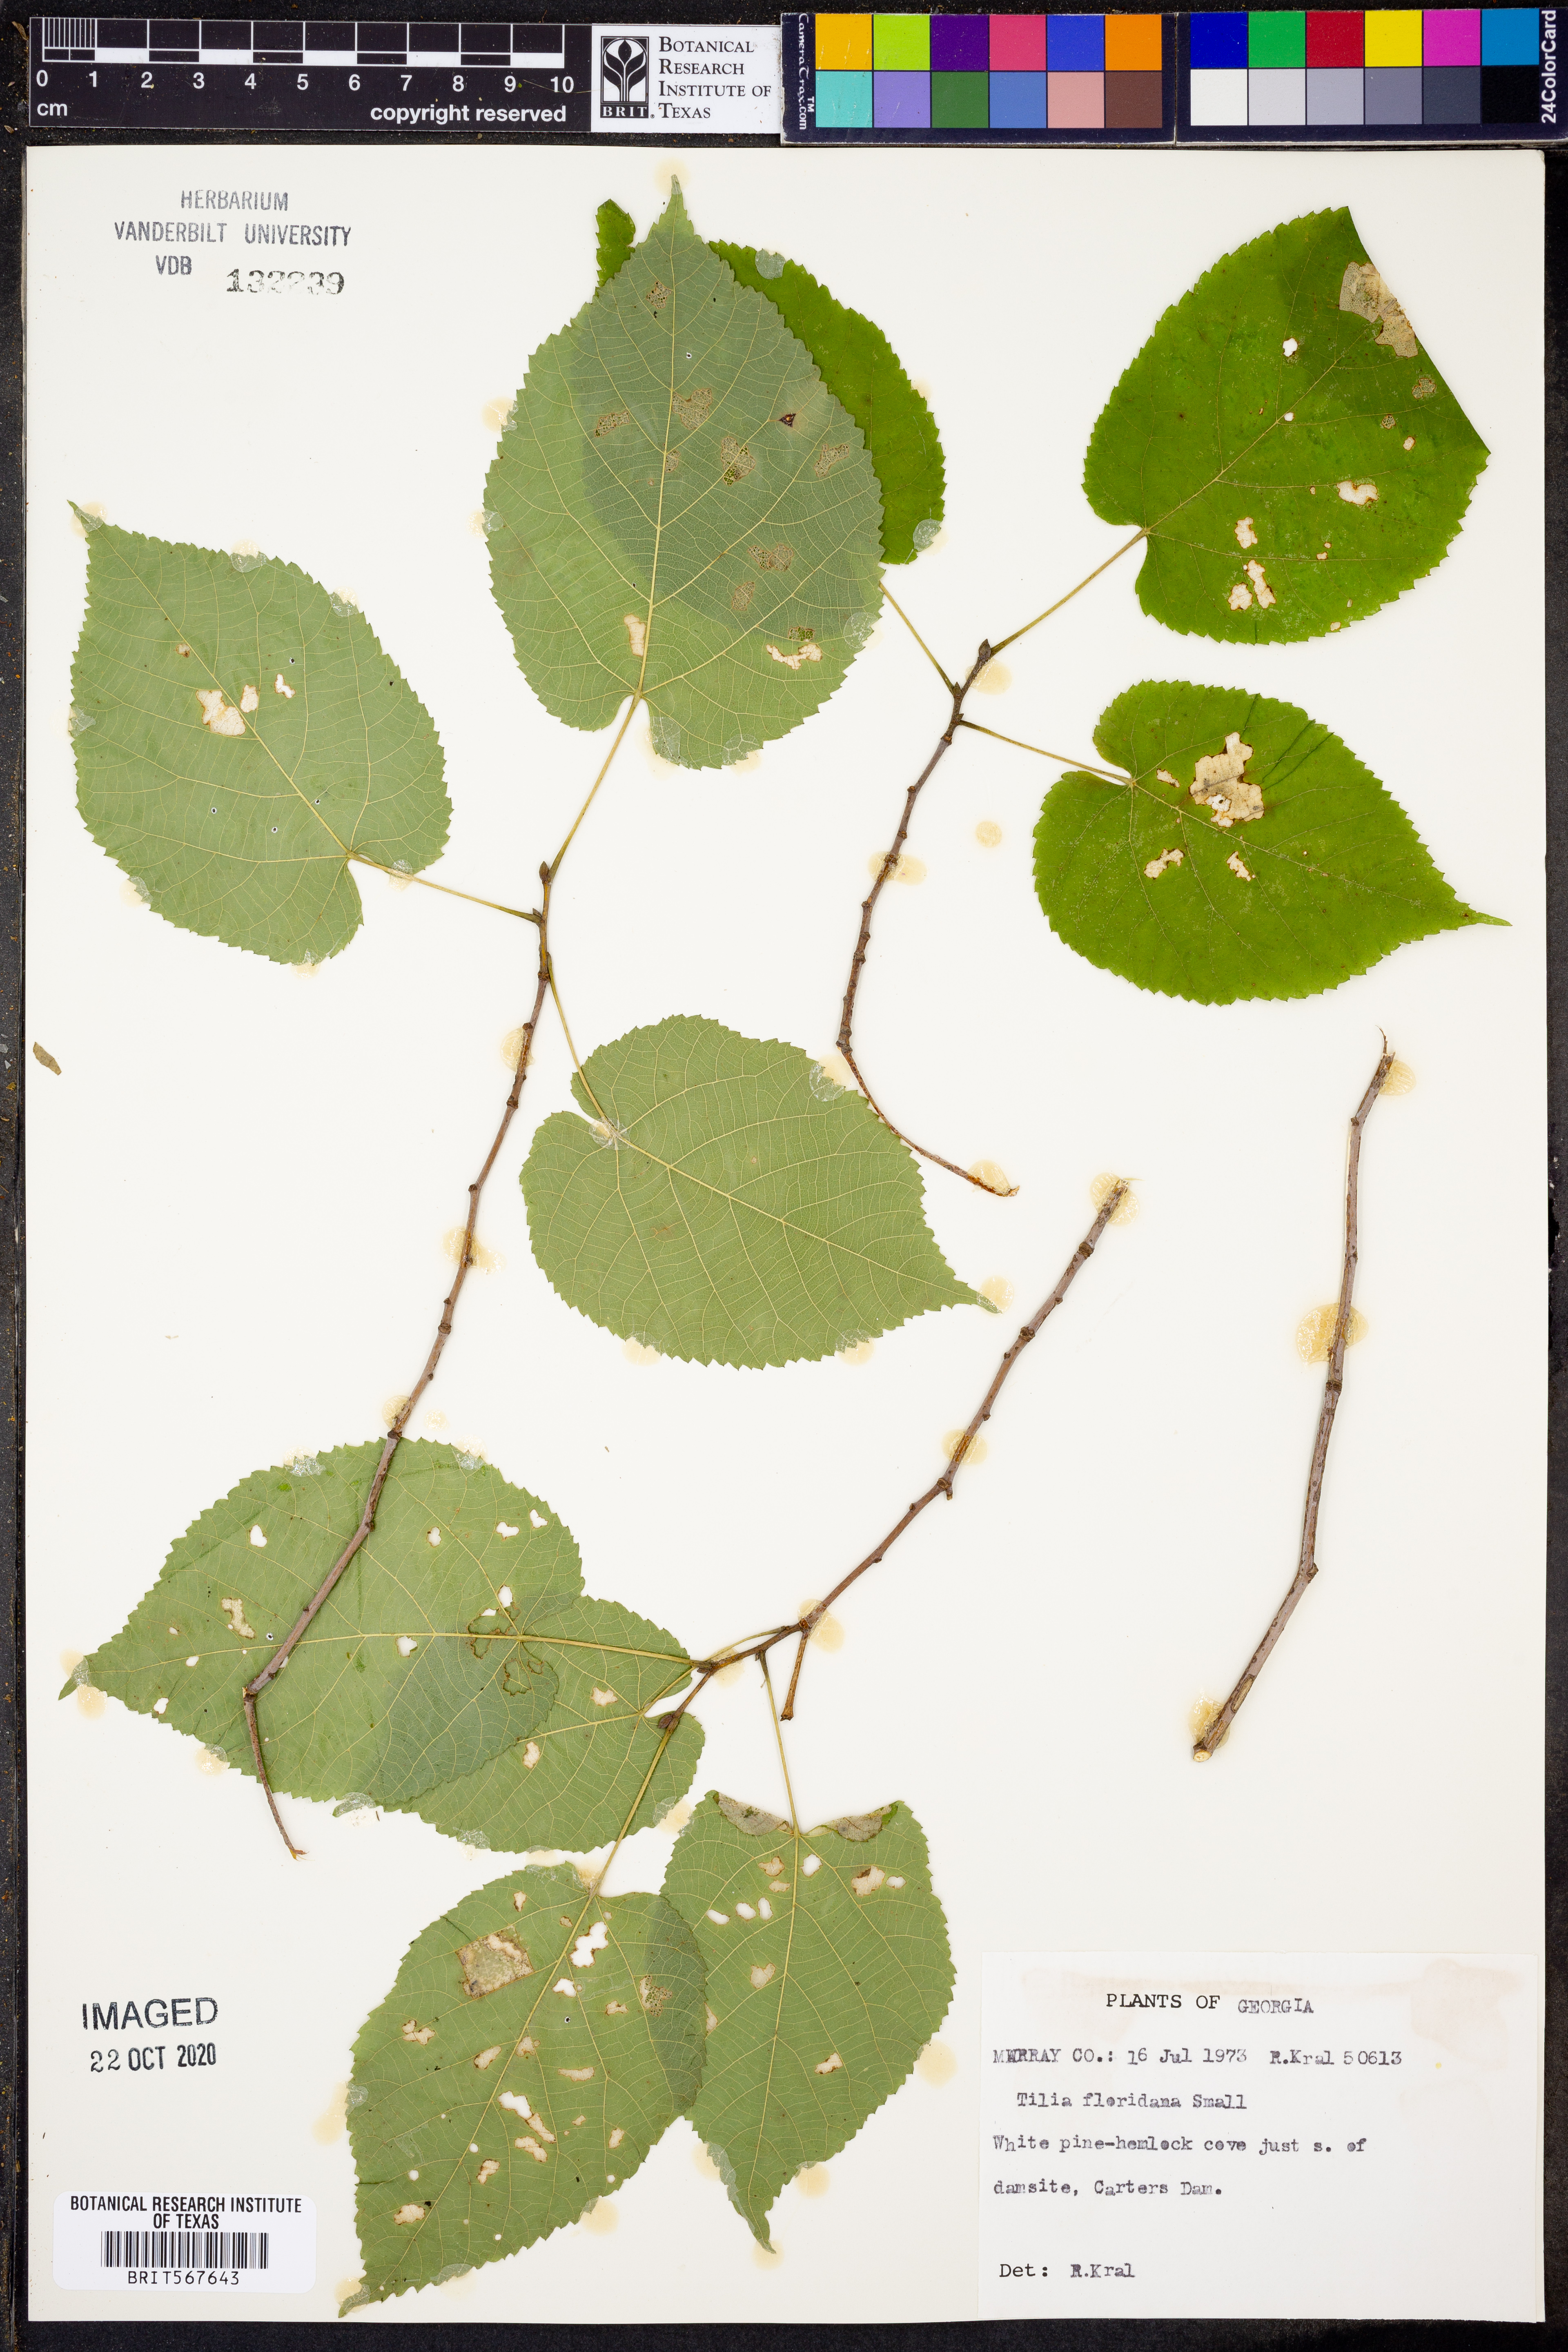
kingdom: Plantae
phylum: Tracheophyta
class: Magnoliopsida
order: Malvales
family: Malvaceae
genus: Tilia
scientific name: Tilia americana
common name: Basswood
